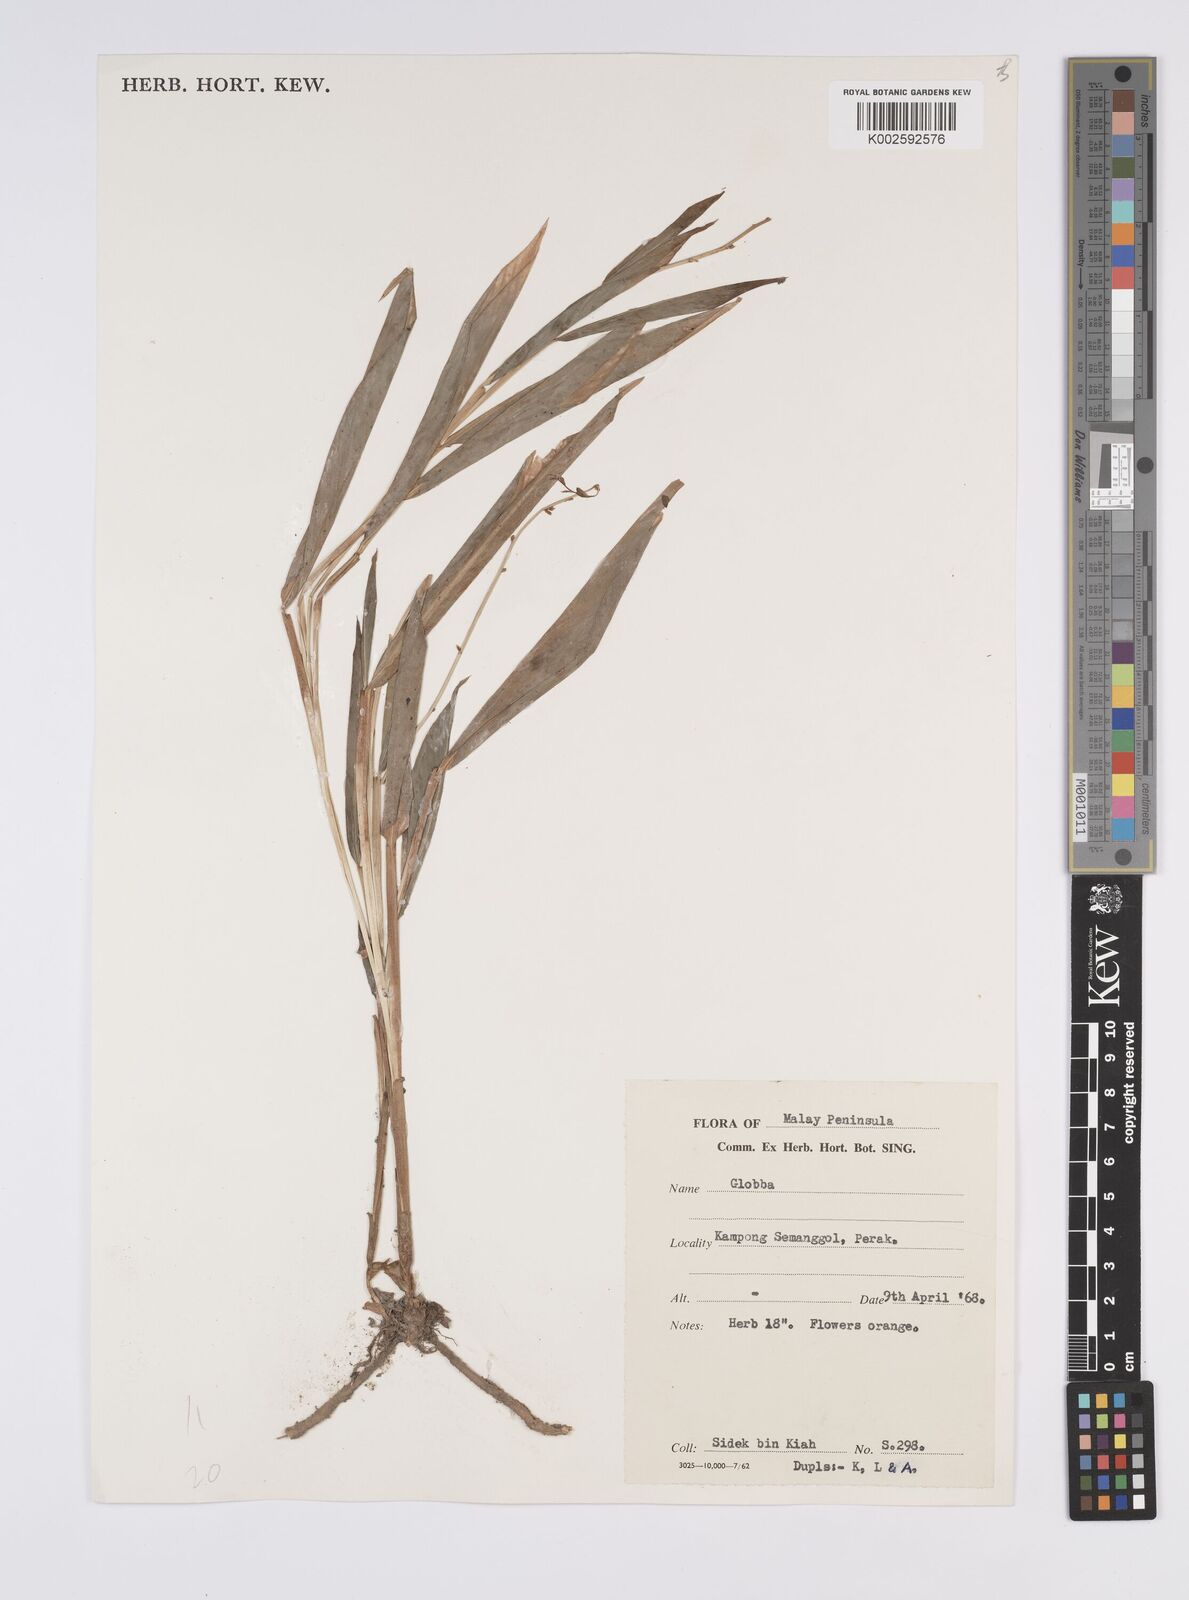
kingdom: Plantae
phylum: Tracheophyta
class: Liliopsida
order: Zingiberales
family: Zingiberaceae
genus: Globba
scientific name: Globba
